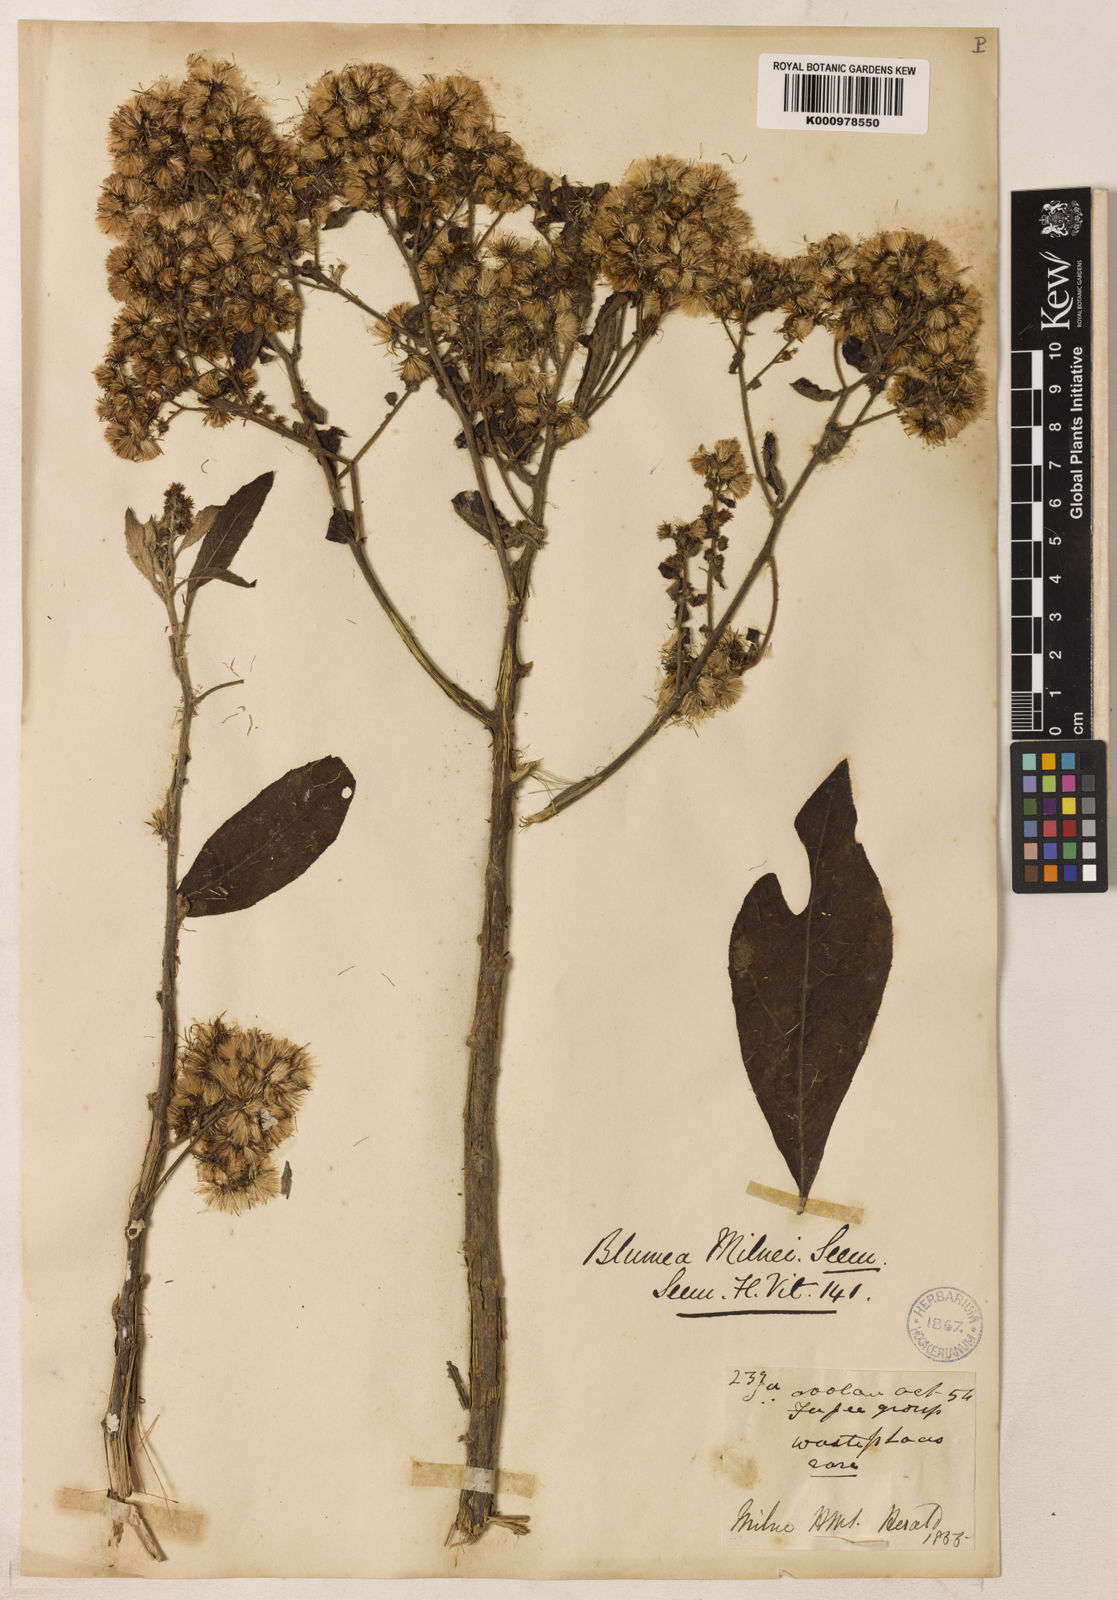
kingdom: Plantae
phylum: Tracheophyta
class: Magnoliopsida
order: Asterales
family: Asteraceae
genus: Blumea
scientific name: Blumea milnei
